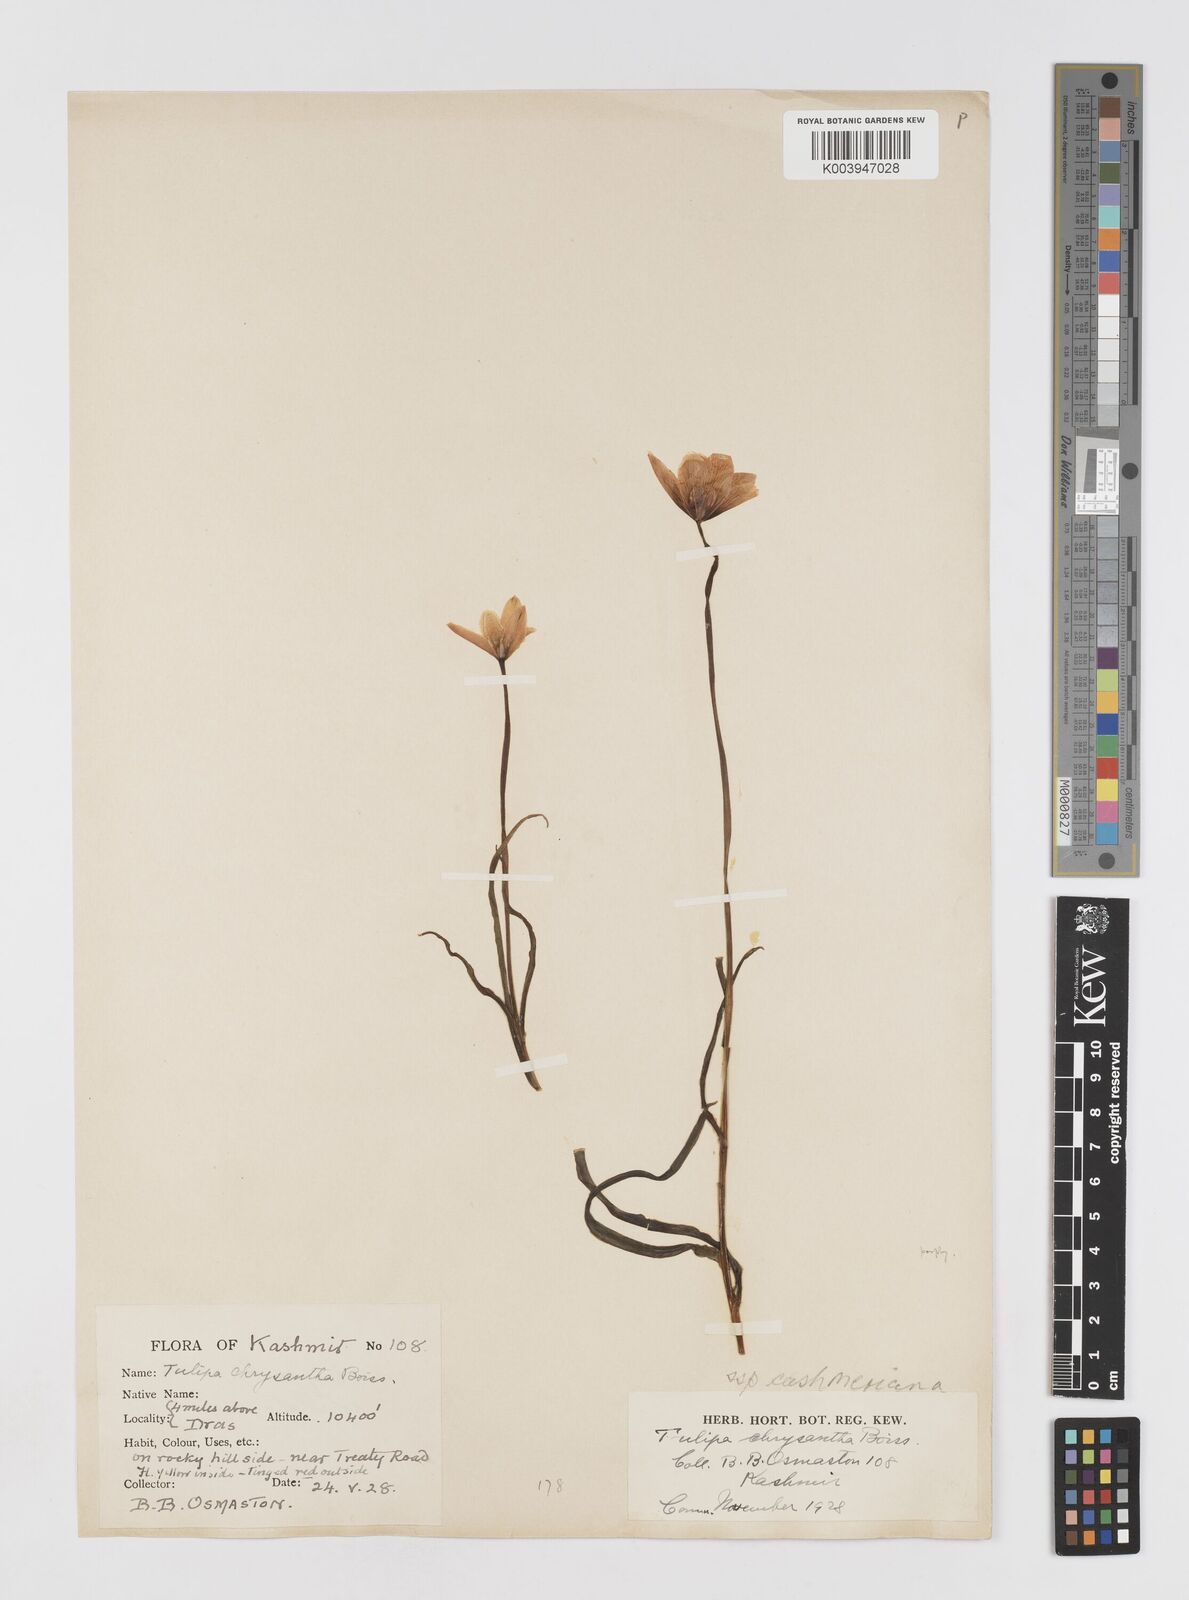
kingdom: Plantae
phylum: Tracheophyta
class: Liliopsida
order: Liliales
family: Liliaceae
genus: Tulipa
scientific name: Tulipa clusiana
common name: Lady tulip
